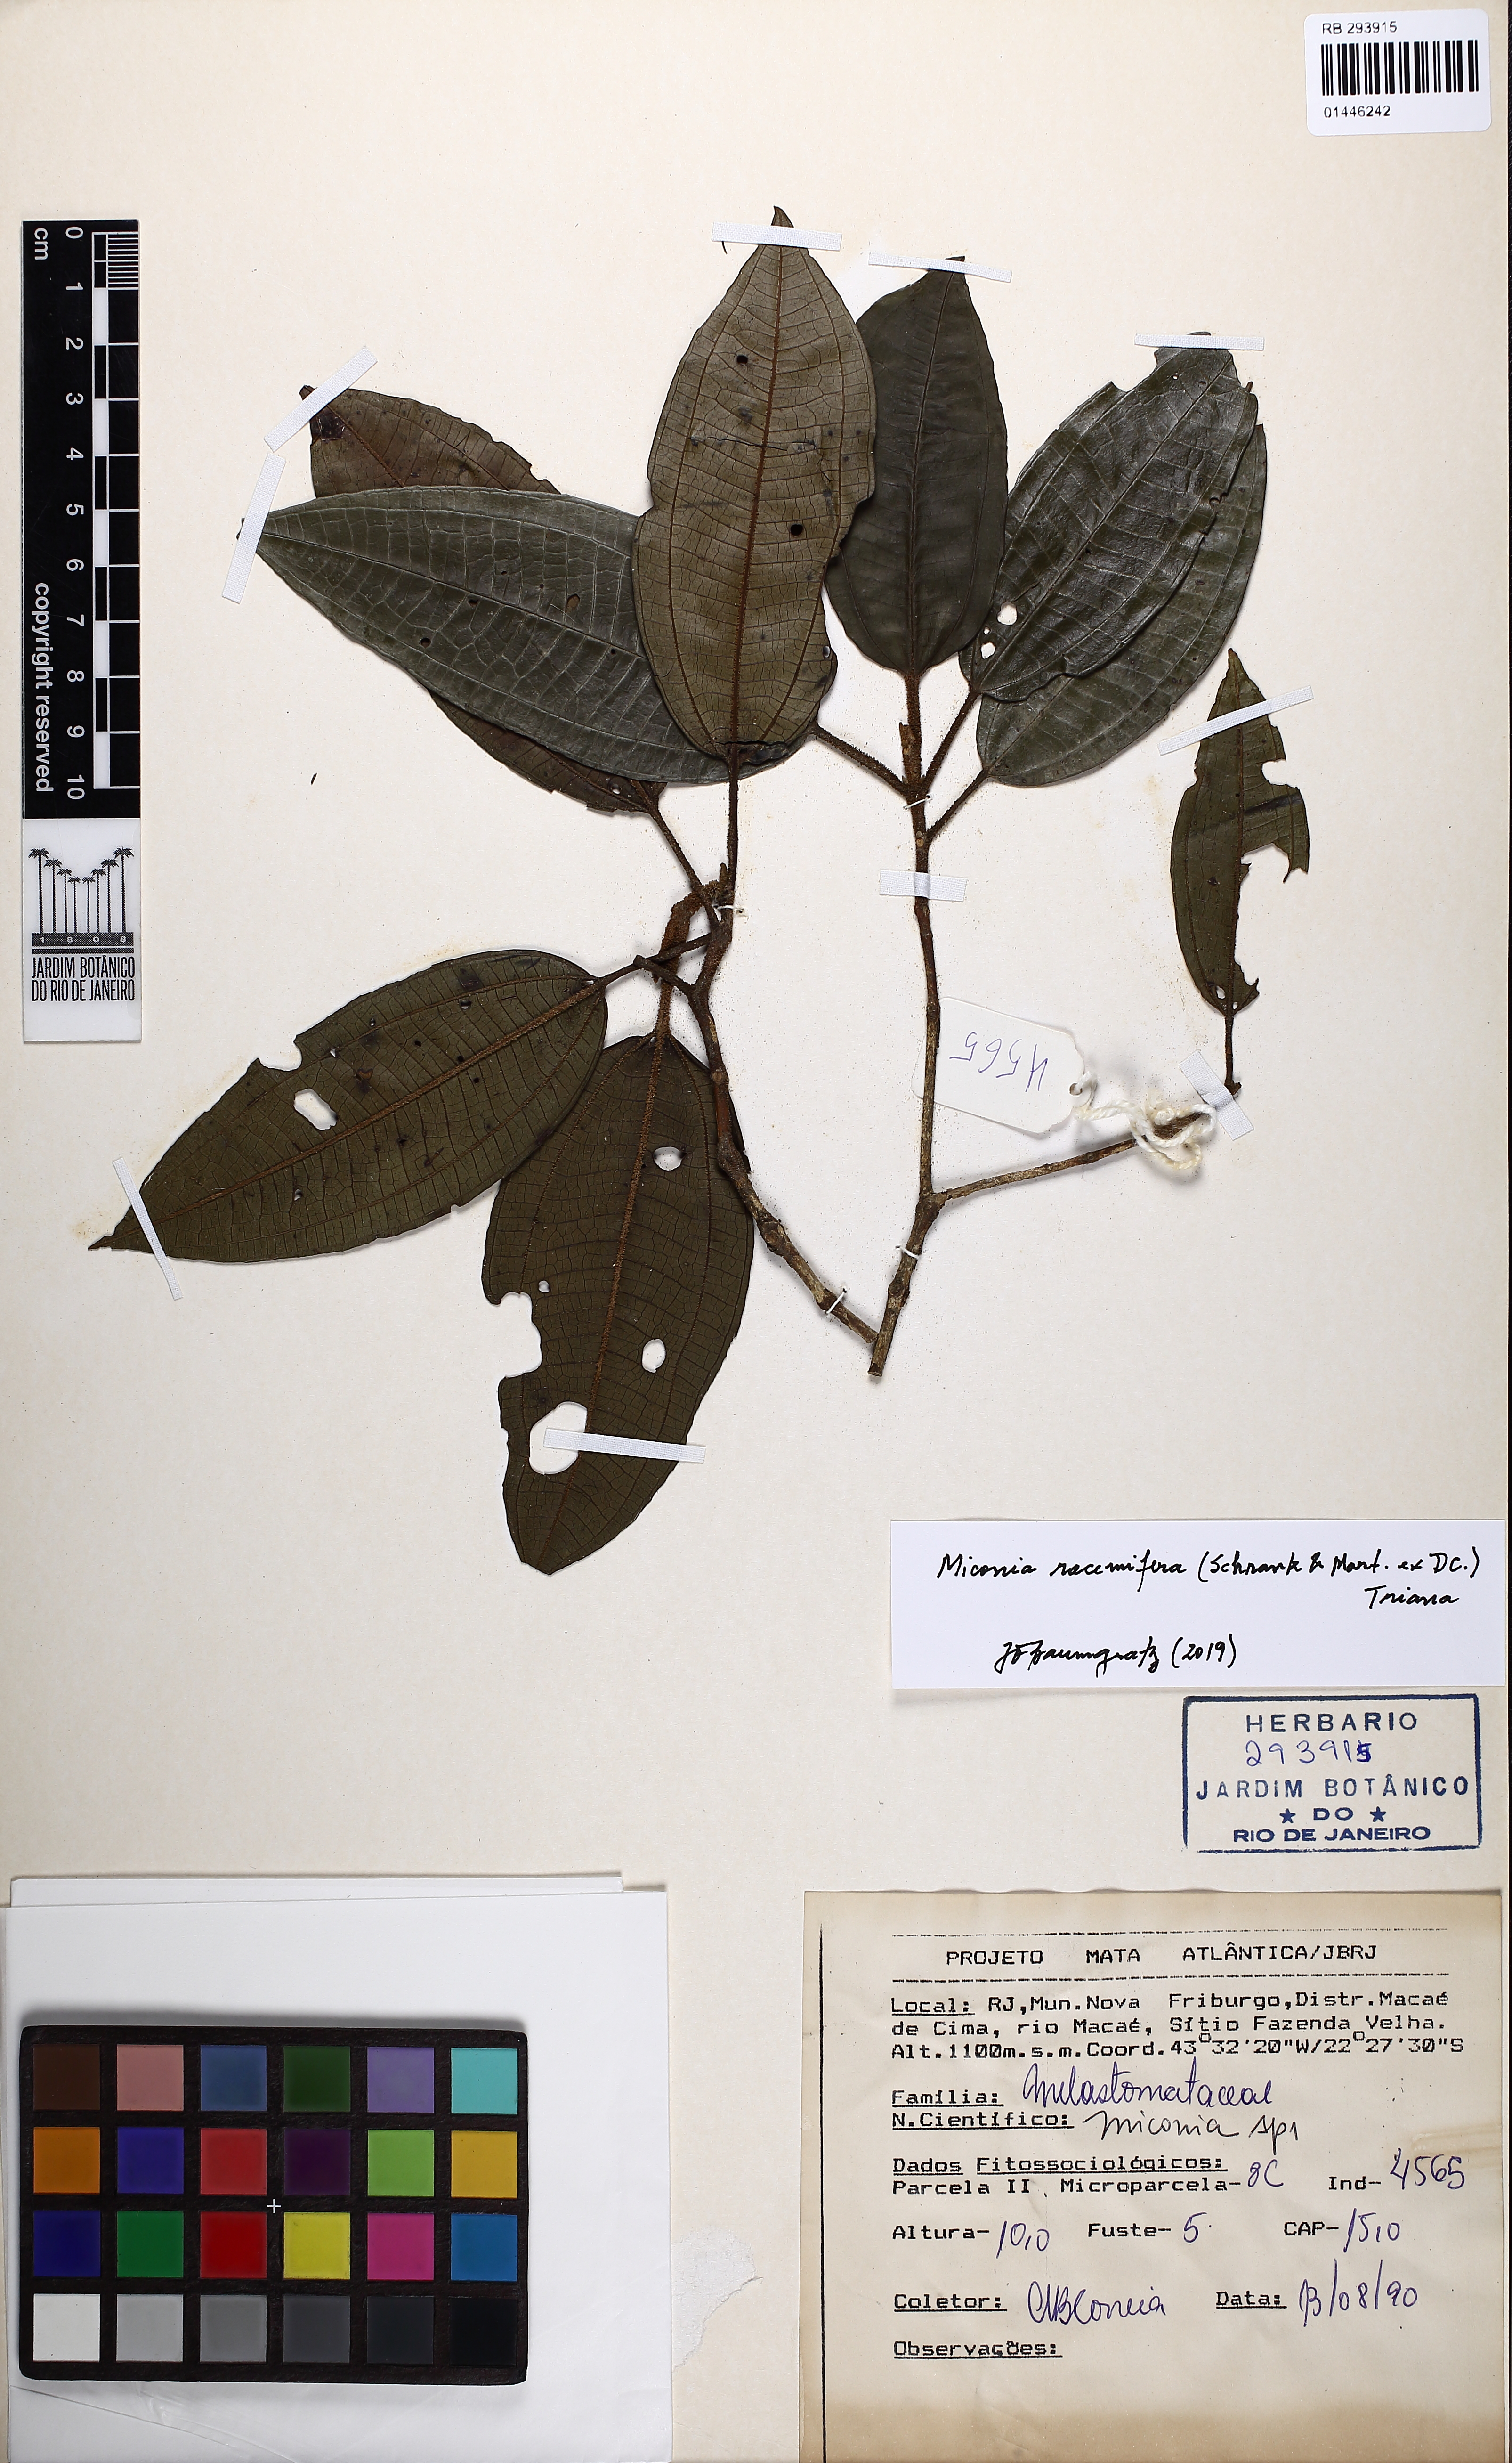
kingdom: Plantae
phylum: Tracheophyta
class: Magnoliopsida
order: Myrtales
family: Melastomataceae
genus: Miconia
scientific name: Miconia racemifera
